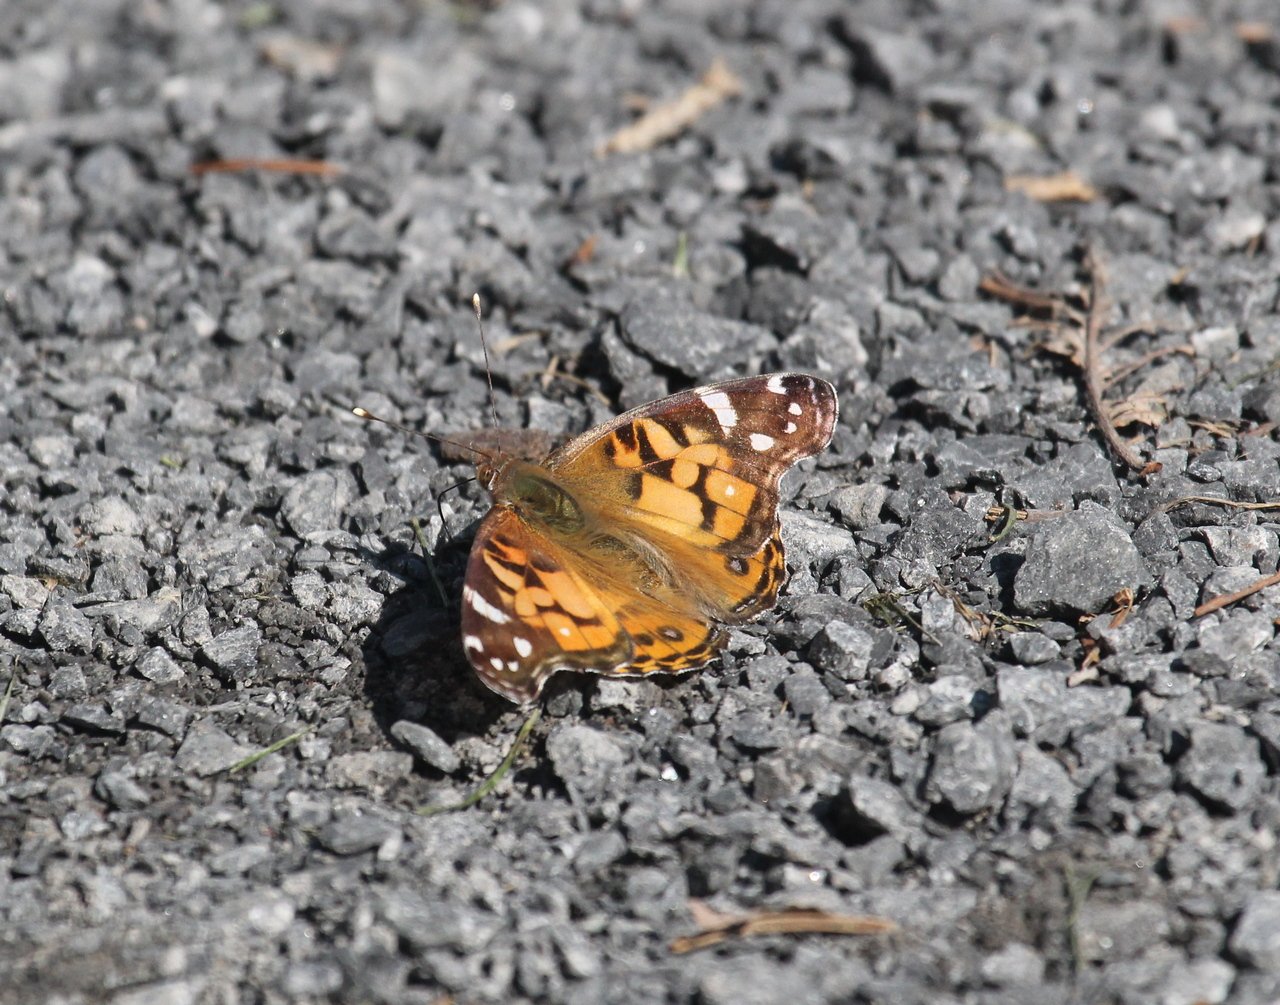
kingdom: Animalia
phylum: Arthropoda
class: Insecta
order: Lepidoptera
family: Nymphalidae
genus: Vanessa
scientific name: Vanessa virginiensis
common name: American Lady
